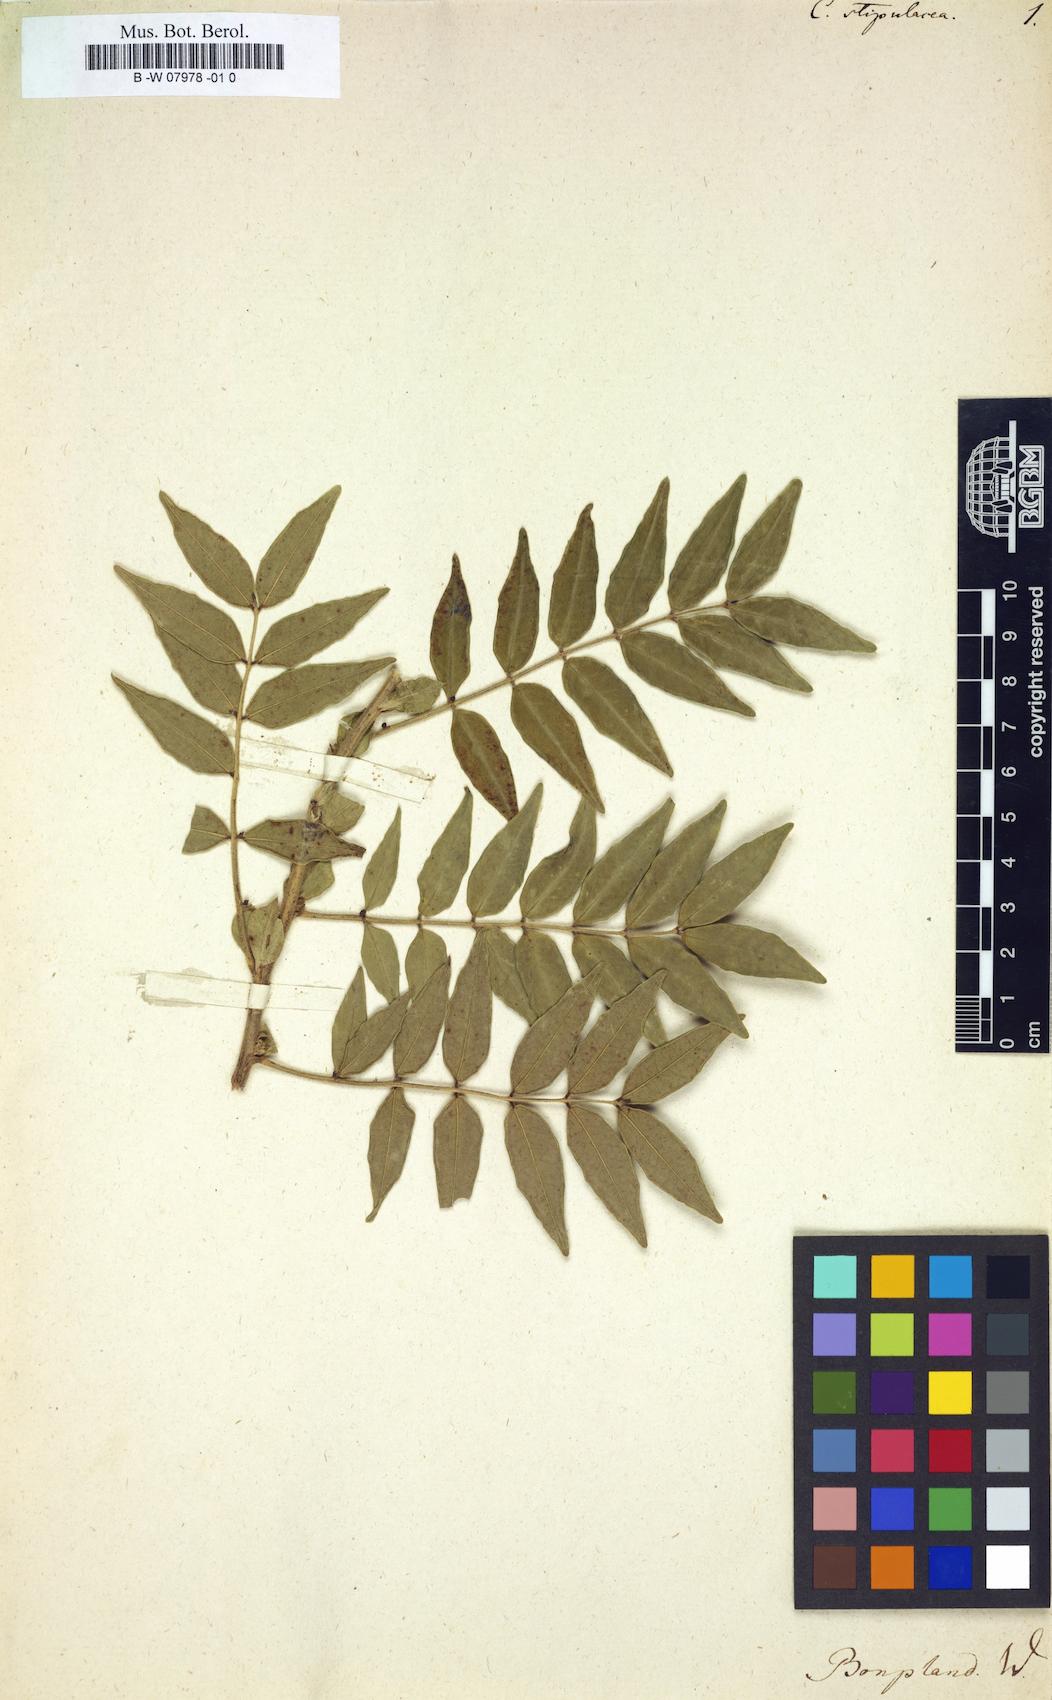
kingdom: Plantae
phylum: Tracheophyta
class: Magnoliopsida
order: Fabales
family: Fabaceae
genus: Senna
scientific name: Senna stipulacea
